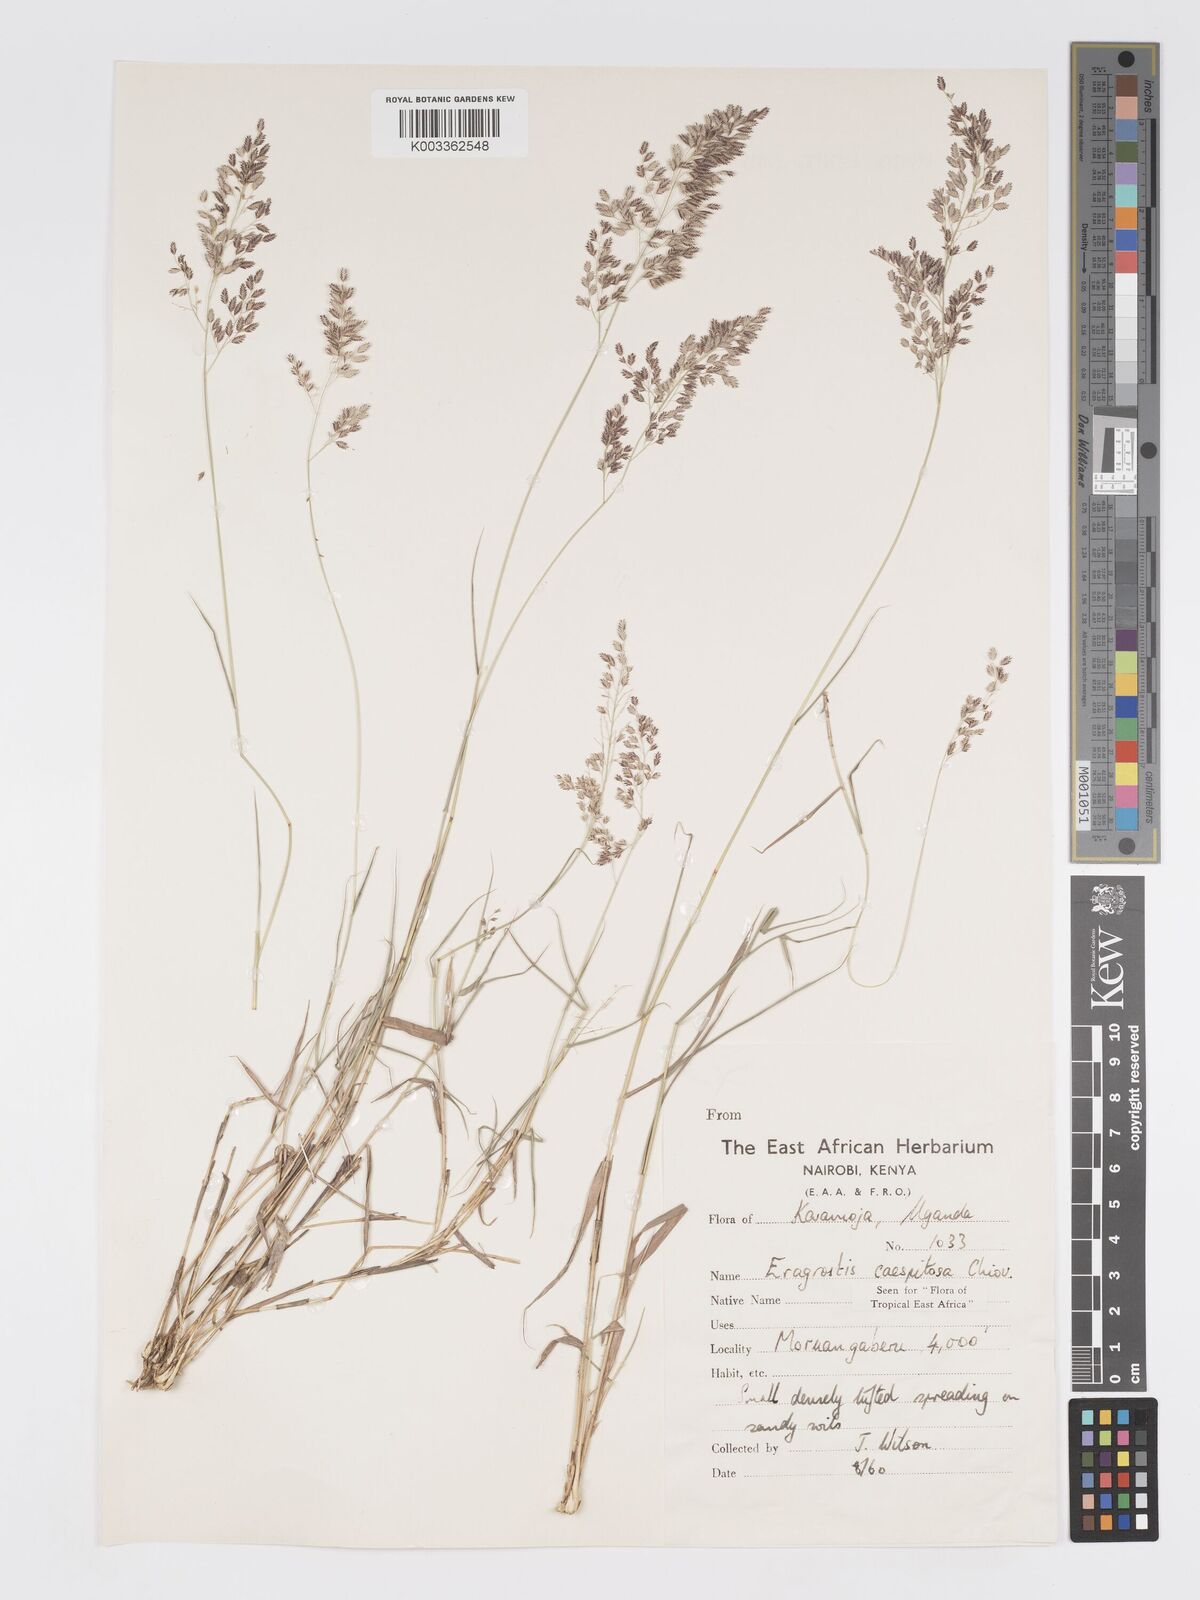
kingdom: Plantae
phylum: Tracheophyta
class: Liliopsida
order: Poales
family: Poaceae
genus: Eragrostis
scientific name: Eragrostis caespitosa
